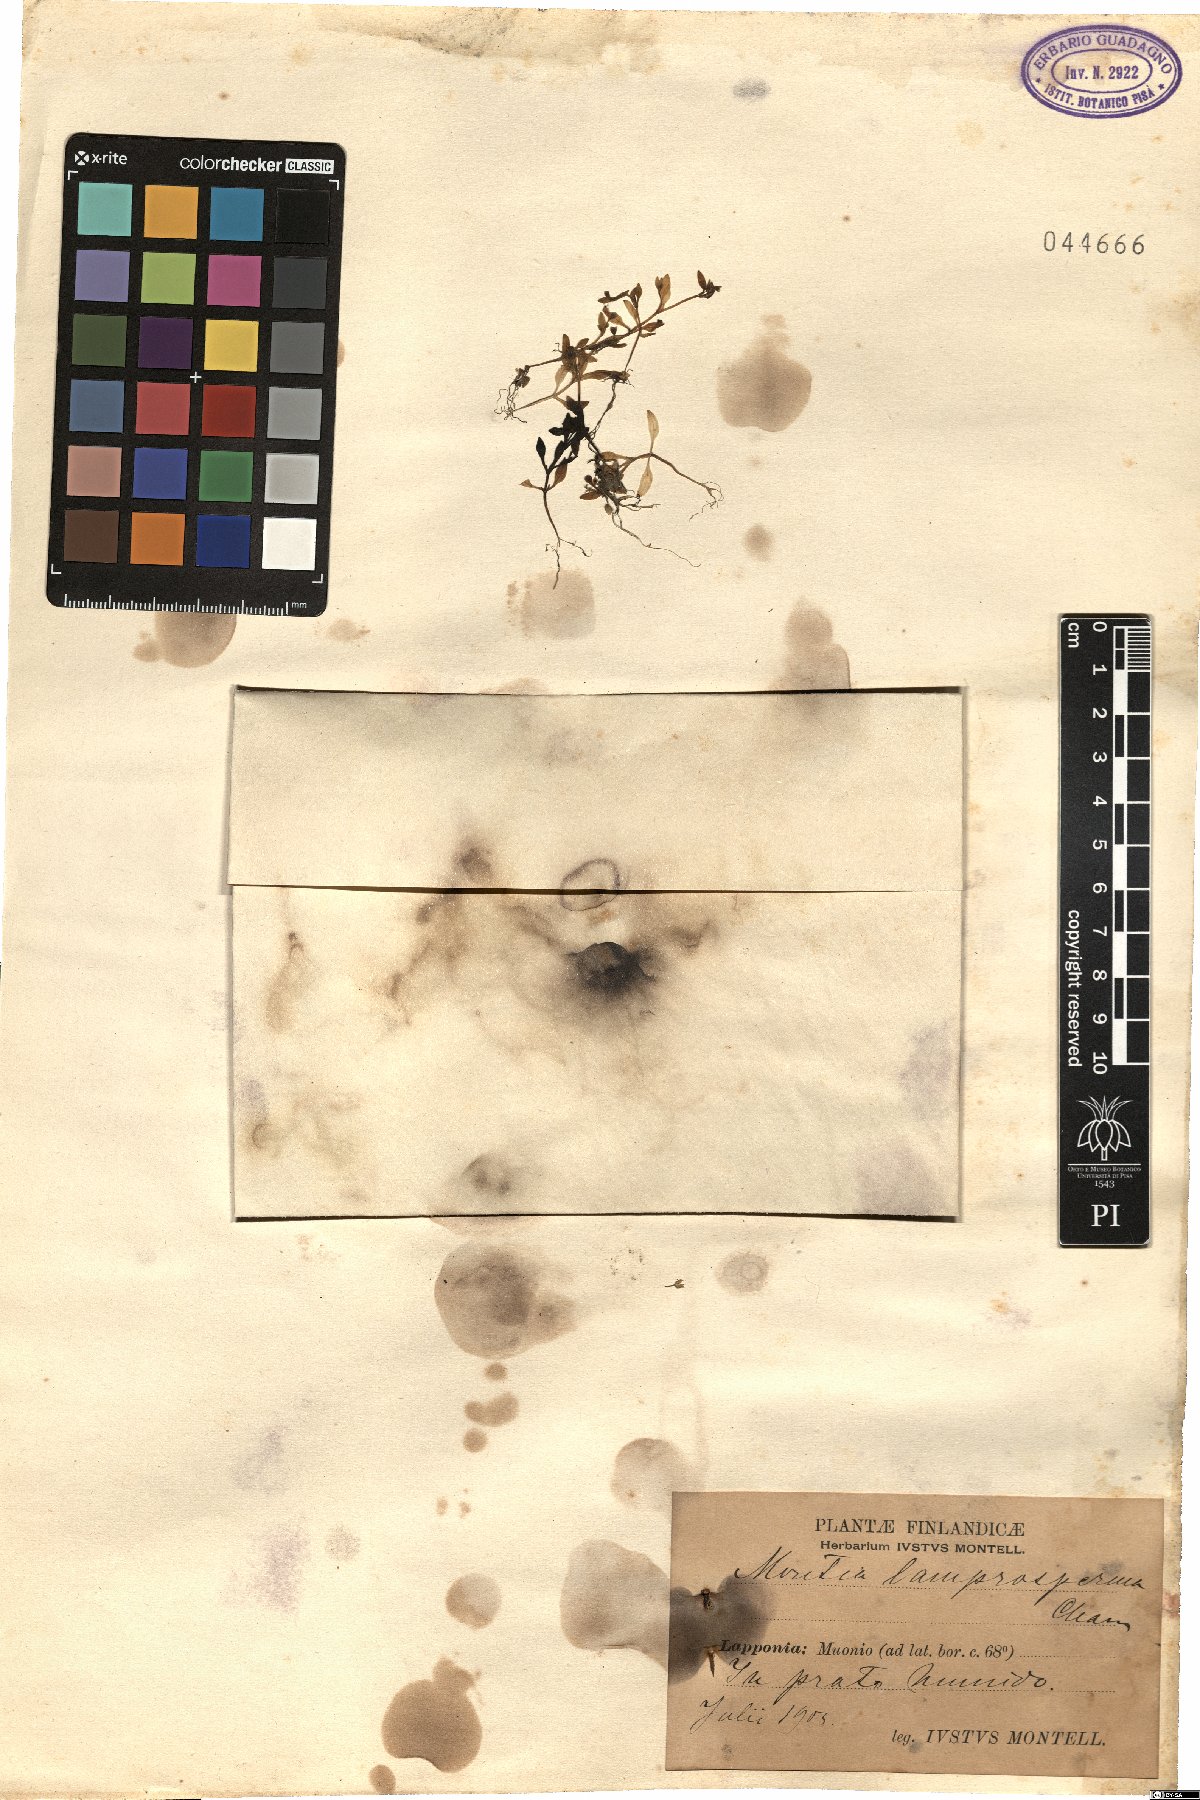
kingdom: Plantae
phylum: Tracheophyta
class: Magnoliopsida
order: Caryophyllales
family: Montiaceae
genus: Montia
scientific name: Montia fontana
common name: Blinks
